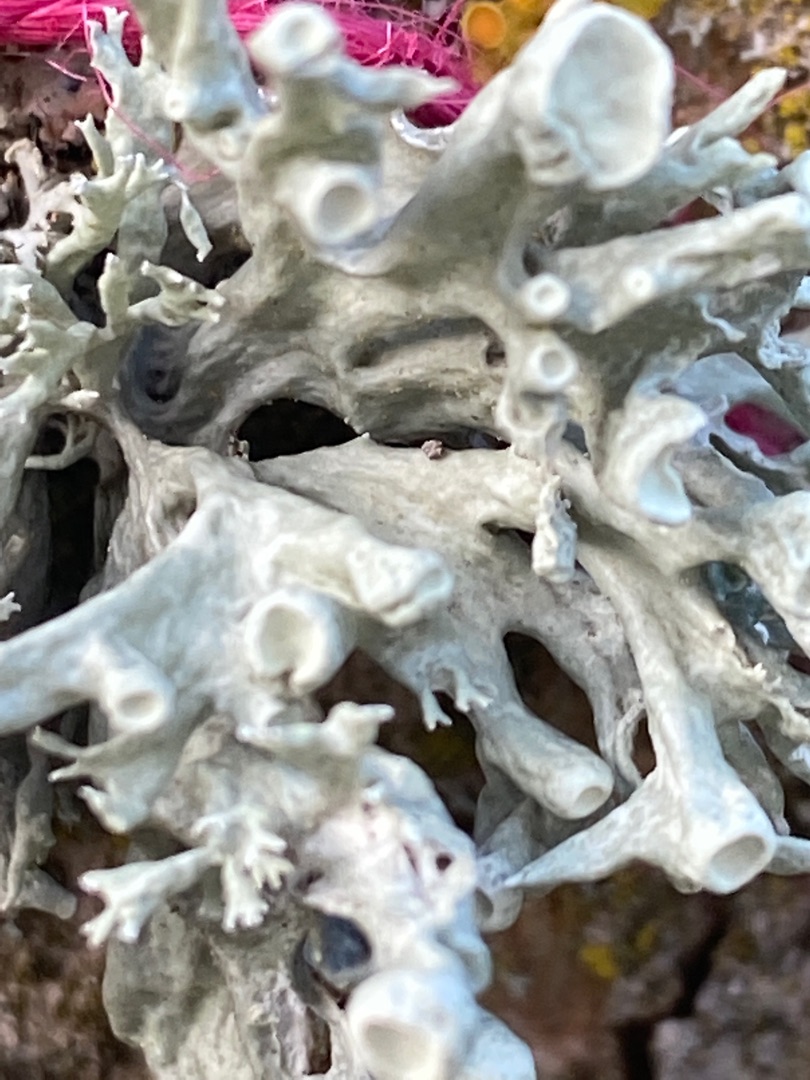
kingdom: Fungi
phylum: Ascomycota
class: Lecanoromycetes
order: Lecanorales
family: Ramalinaceae
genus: Ramalina
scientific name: Ramalina fastigiata
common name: Tue-grenlav
